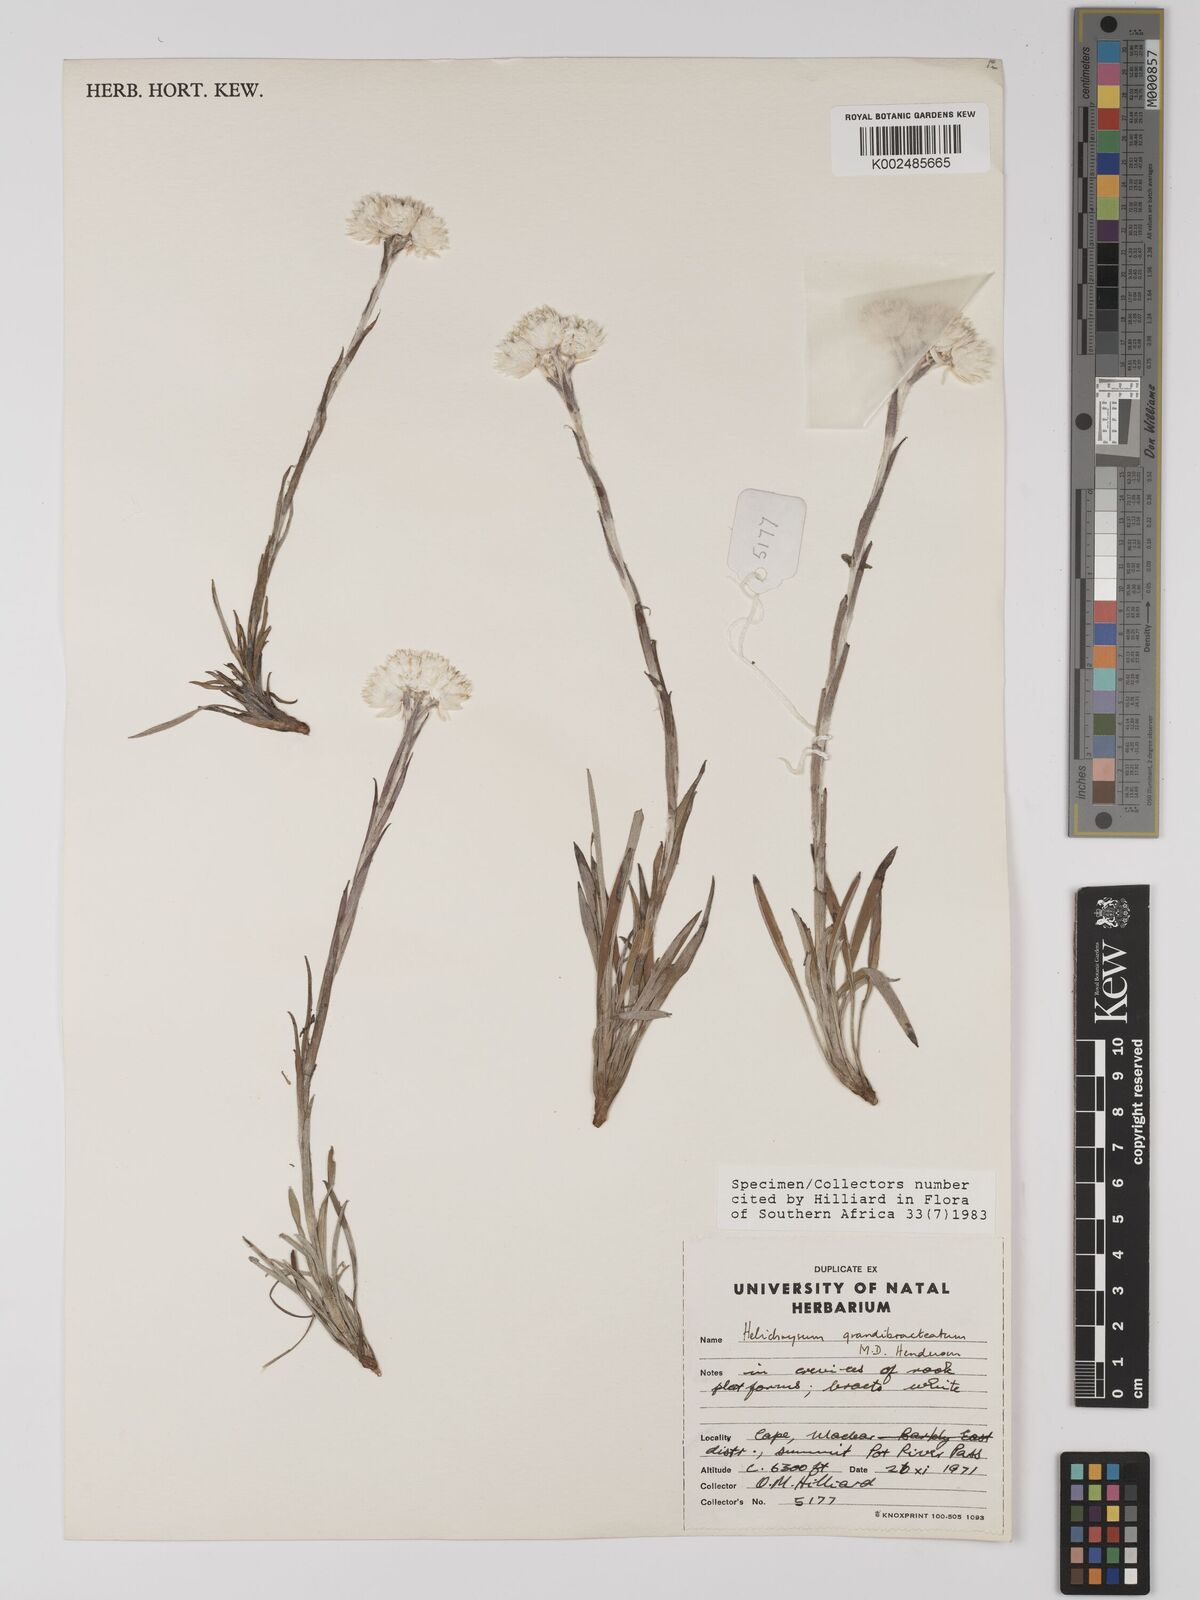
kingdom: Plantae
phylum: Tracheophyta
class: Magnoliopsida
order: Asterales
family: Asteraceae
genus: Helichrysum
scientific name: Helichrysum grandibracteatum
